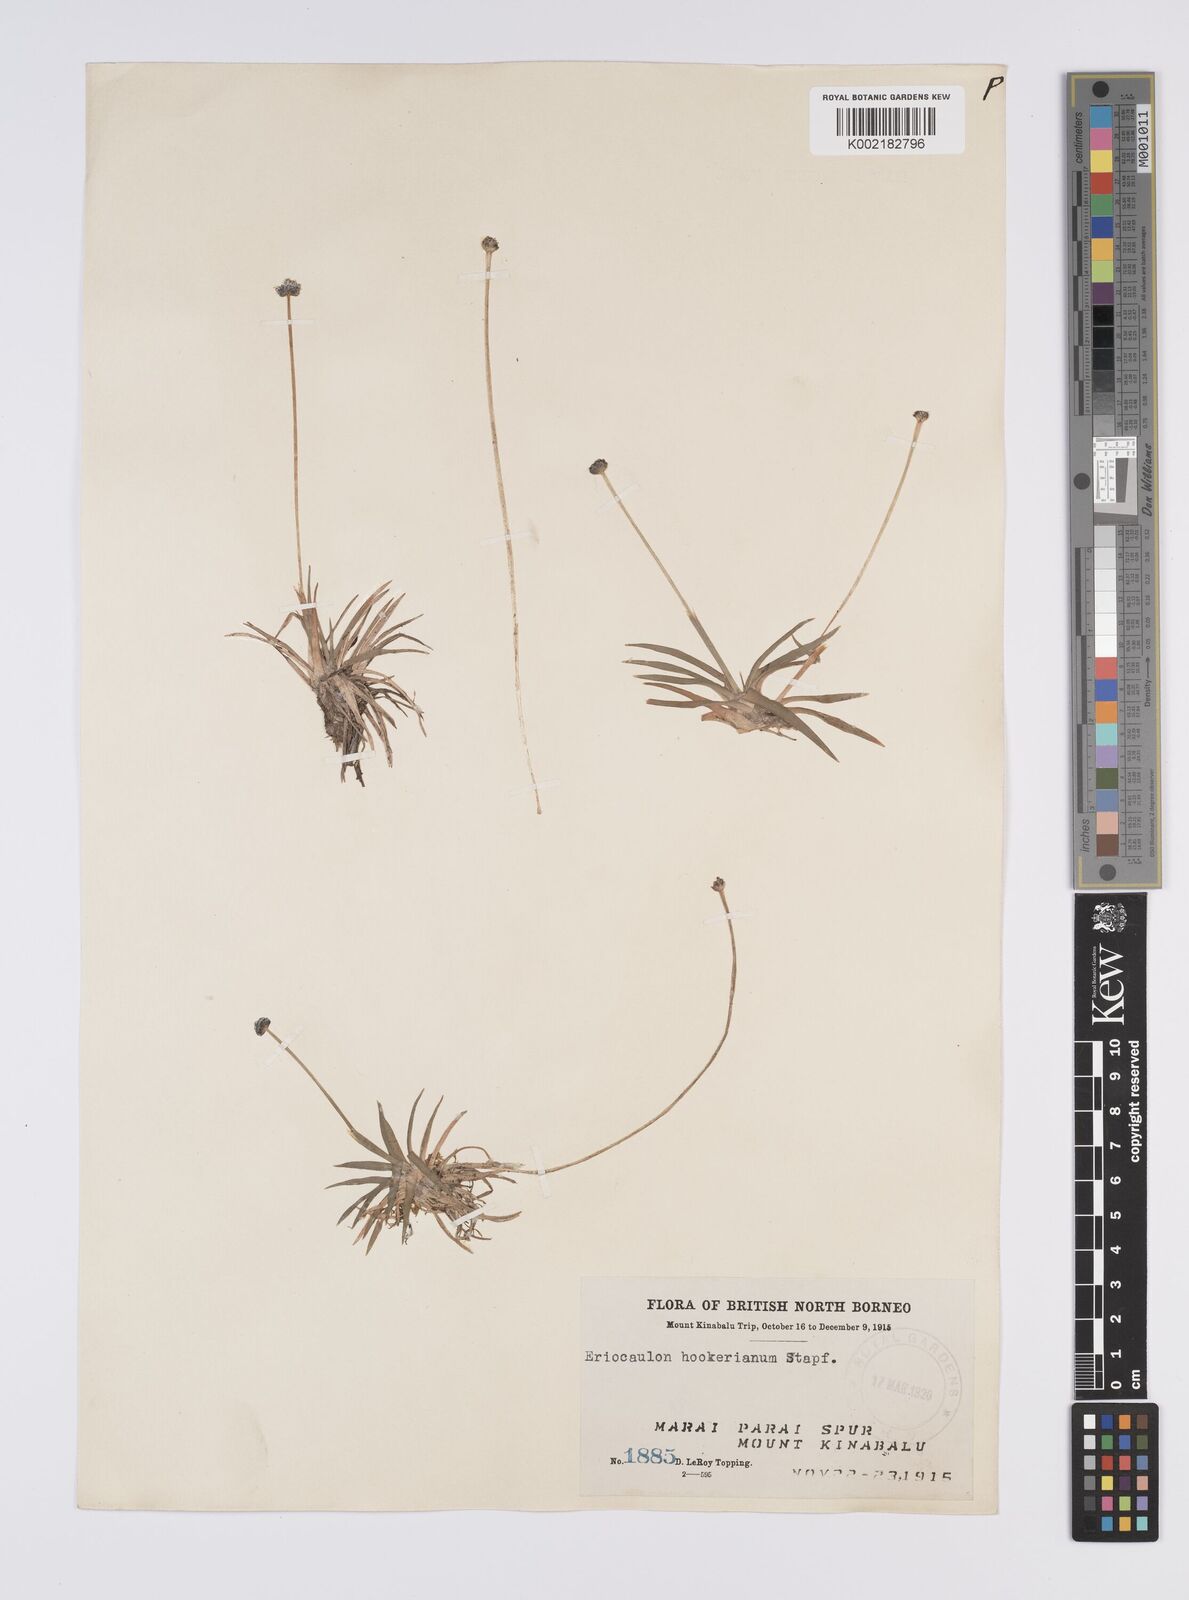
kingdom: Plantae
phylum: Tracheophyta
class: Liliopsida
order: Poales
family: Eriocaulaceae
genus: Eriocaulon
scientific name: Eriocaulon hookerianum
